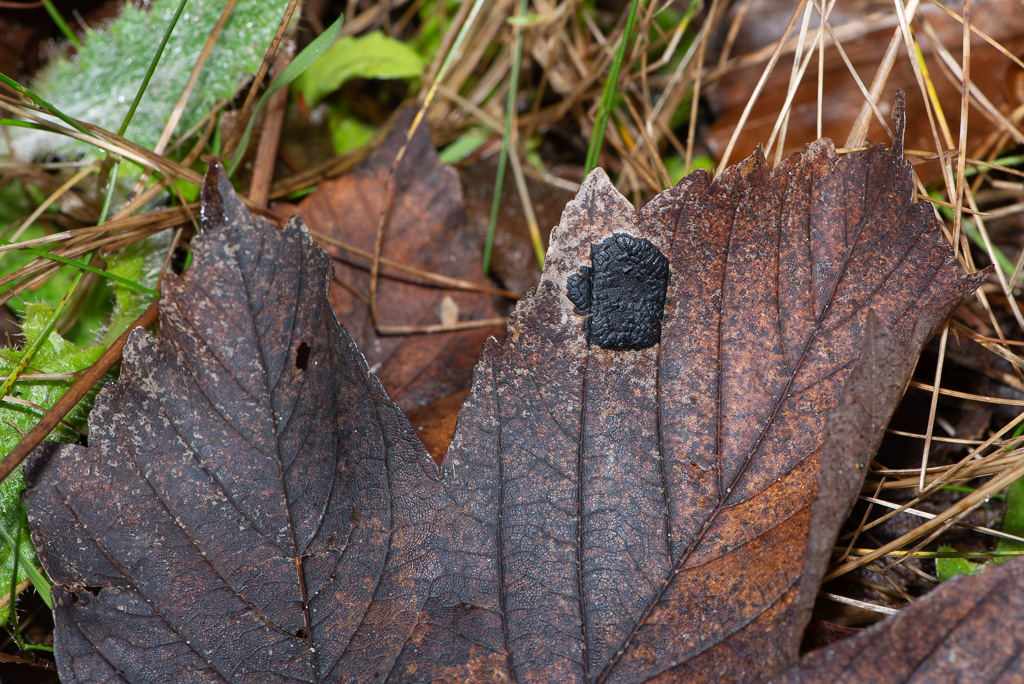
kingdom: Fungi
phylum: Ascomycota
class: Leotiomycetes
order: Rhytismatales
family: Rhytismataceae
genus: Rhytisma
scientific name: Rhytisma acerinum
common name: ahorn-rynkeplet
